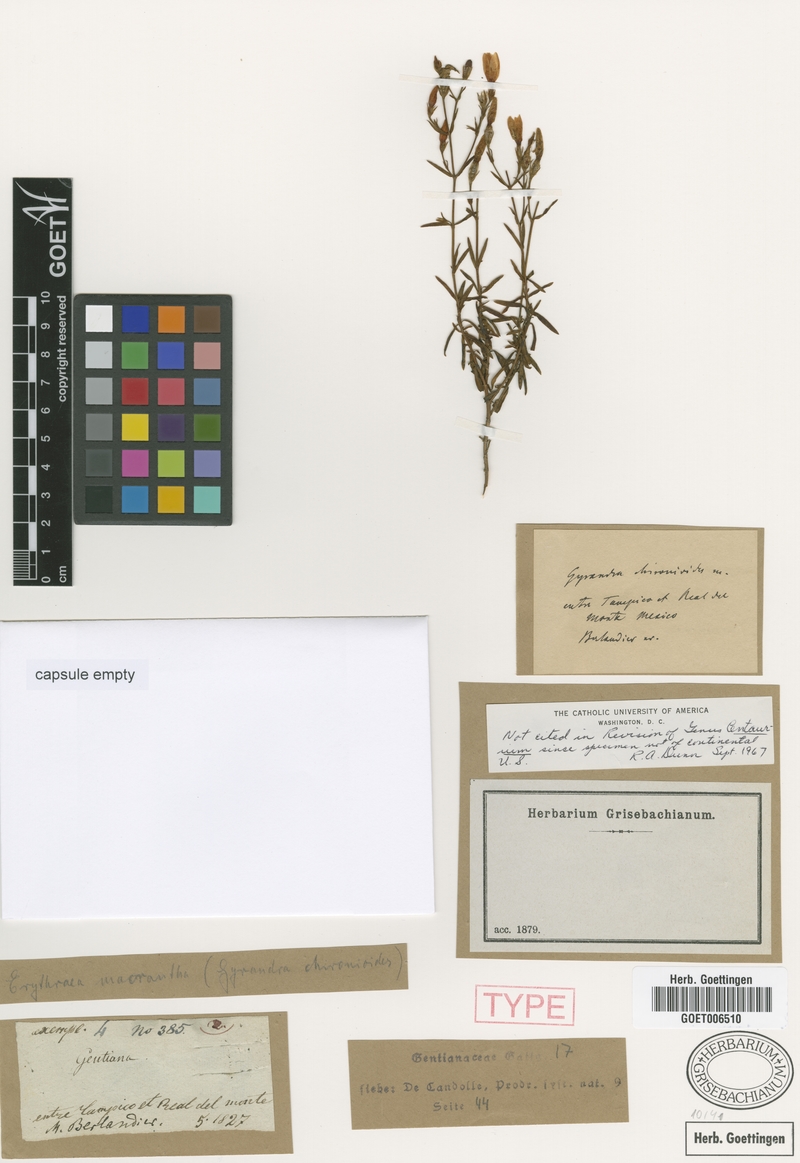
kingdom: Plantae
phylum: Tracheophyta
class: Magnoliopsida
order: Gentianales
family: Gentianaceae
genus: Zeltnera
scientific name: Zeltnera calycosa
